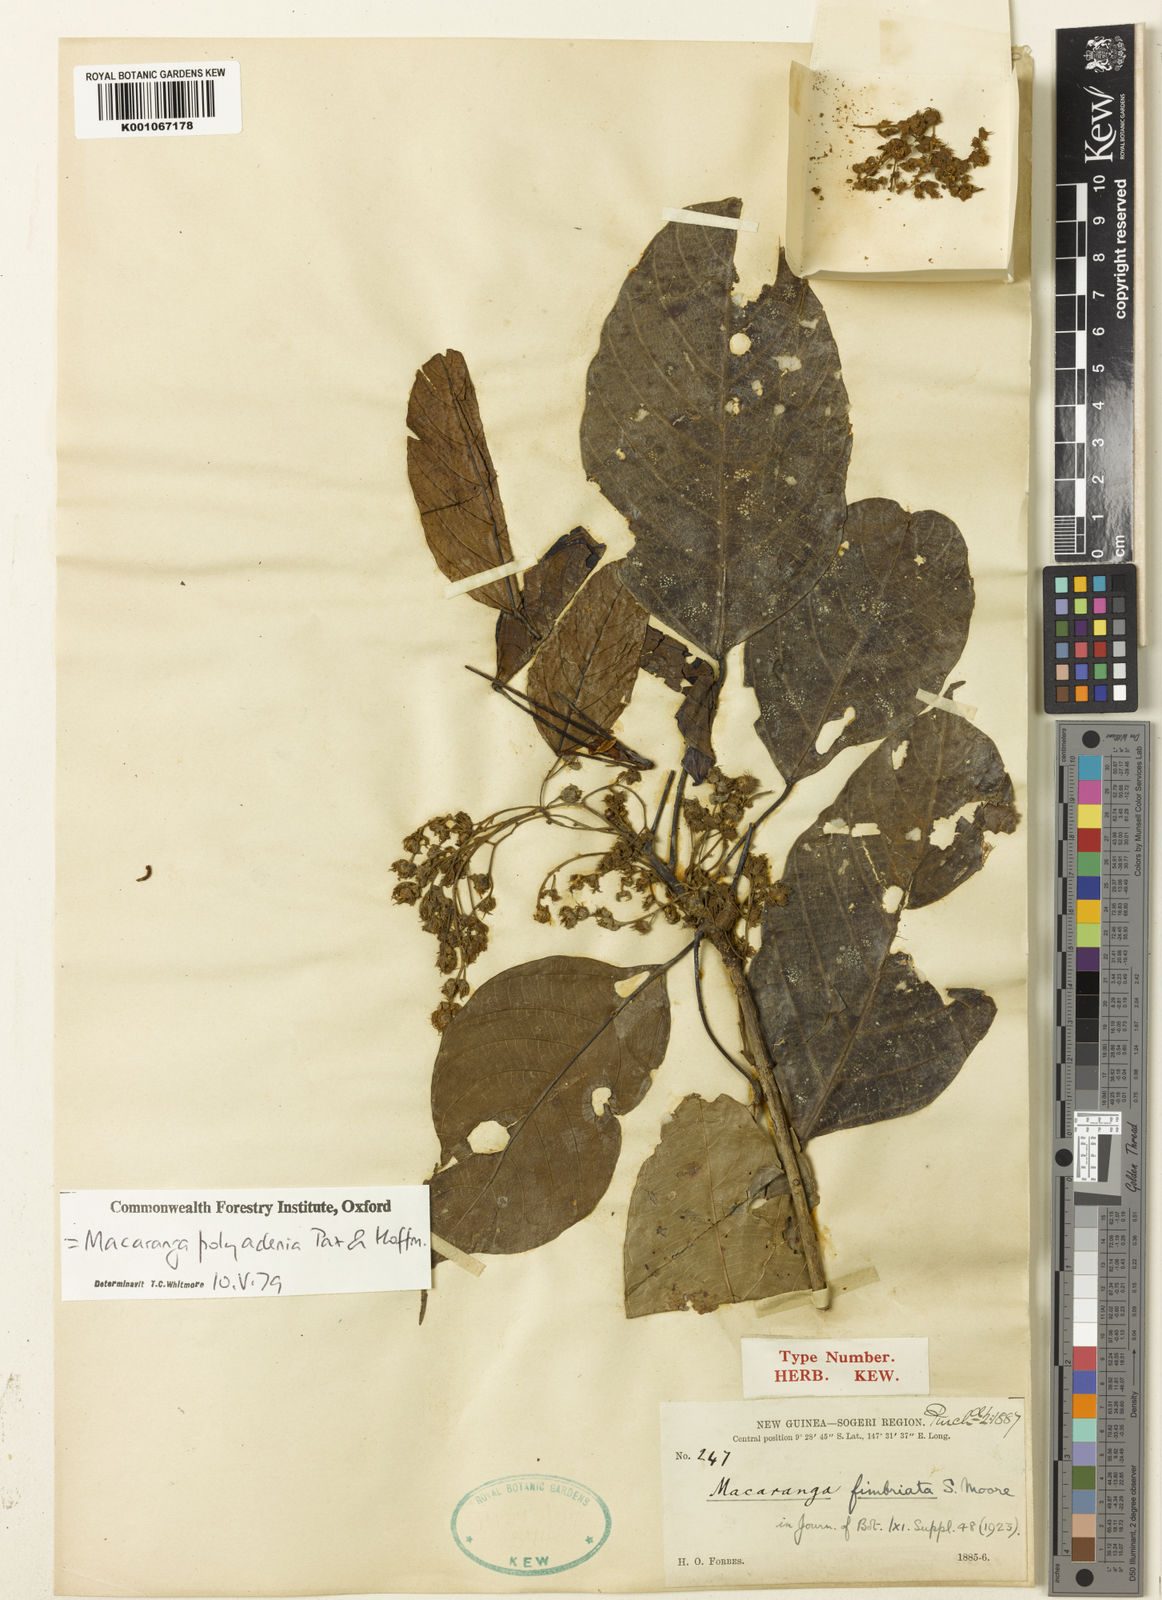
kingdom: Plantae
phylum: Tracheophyta
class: Magnoliopsida
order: Malpighiales
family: Euphorbiaceae
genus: Macaranga
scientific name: Macaranga polyadenia
